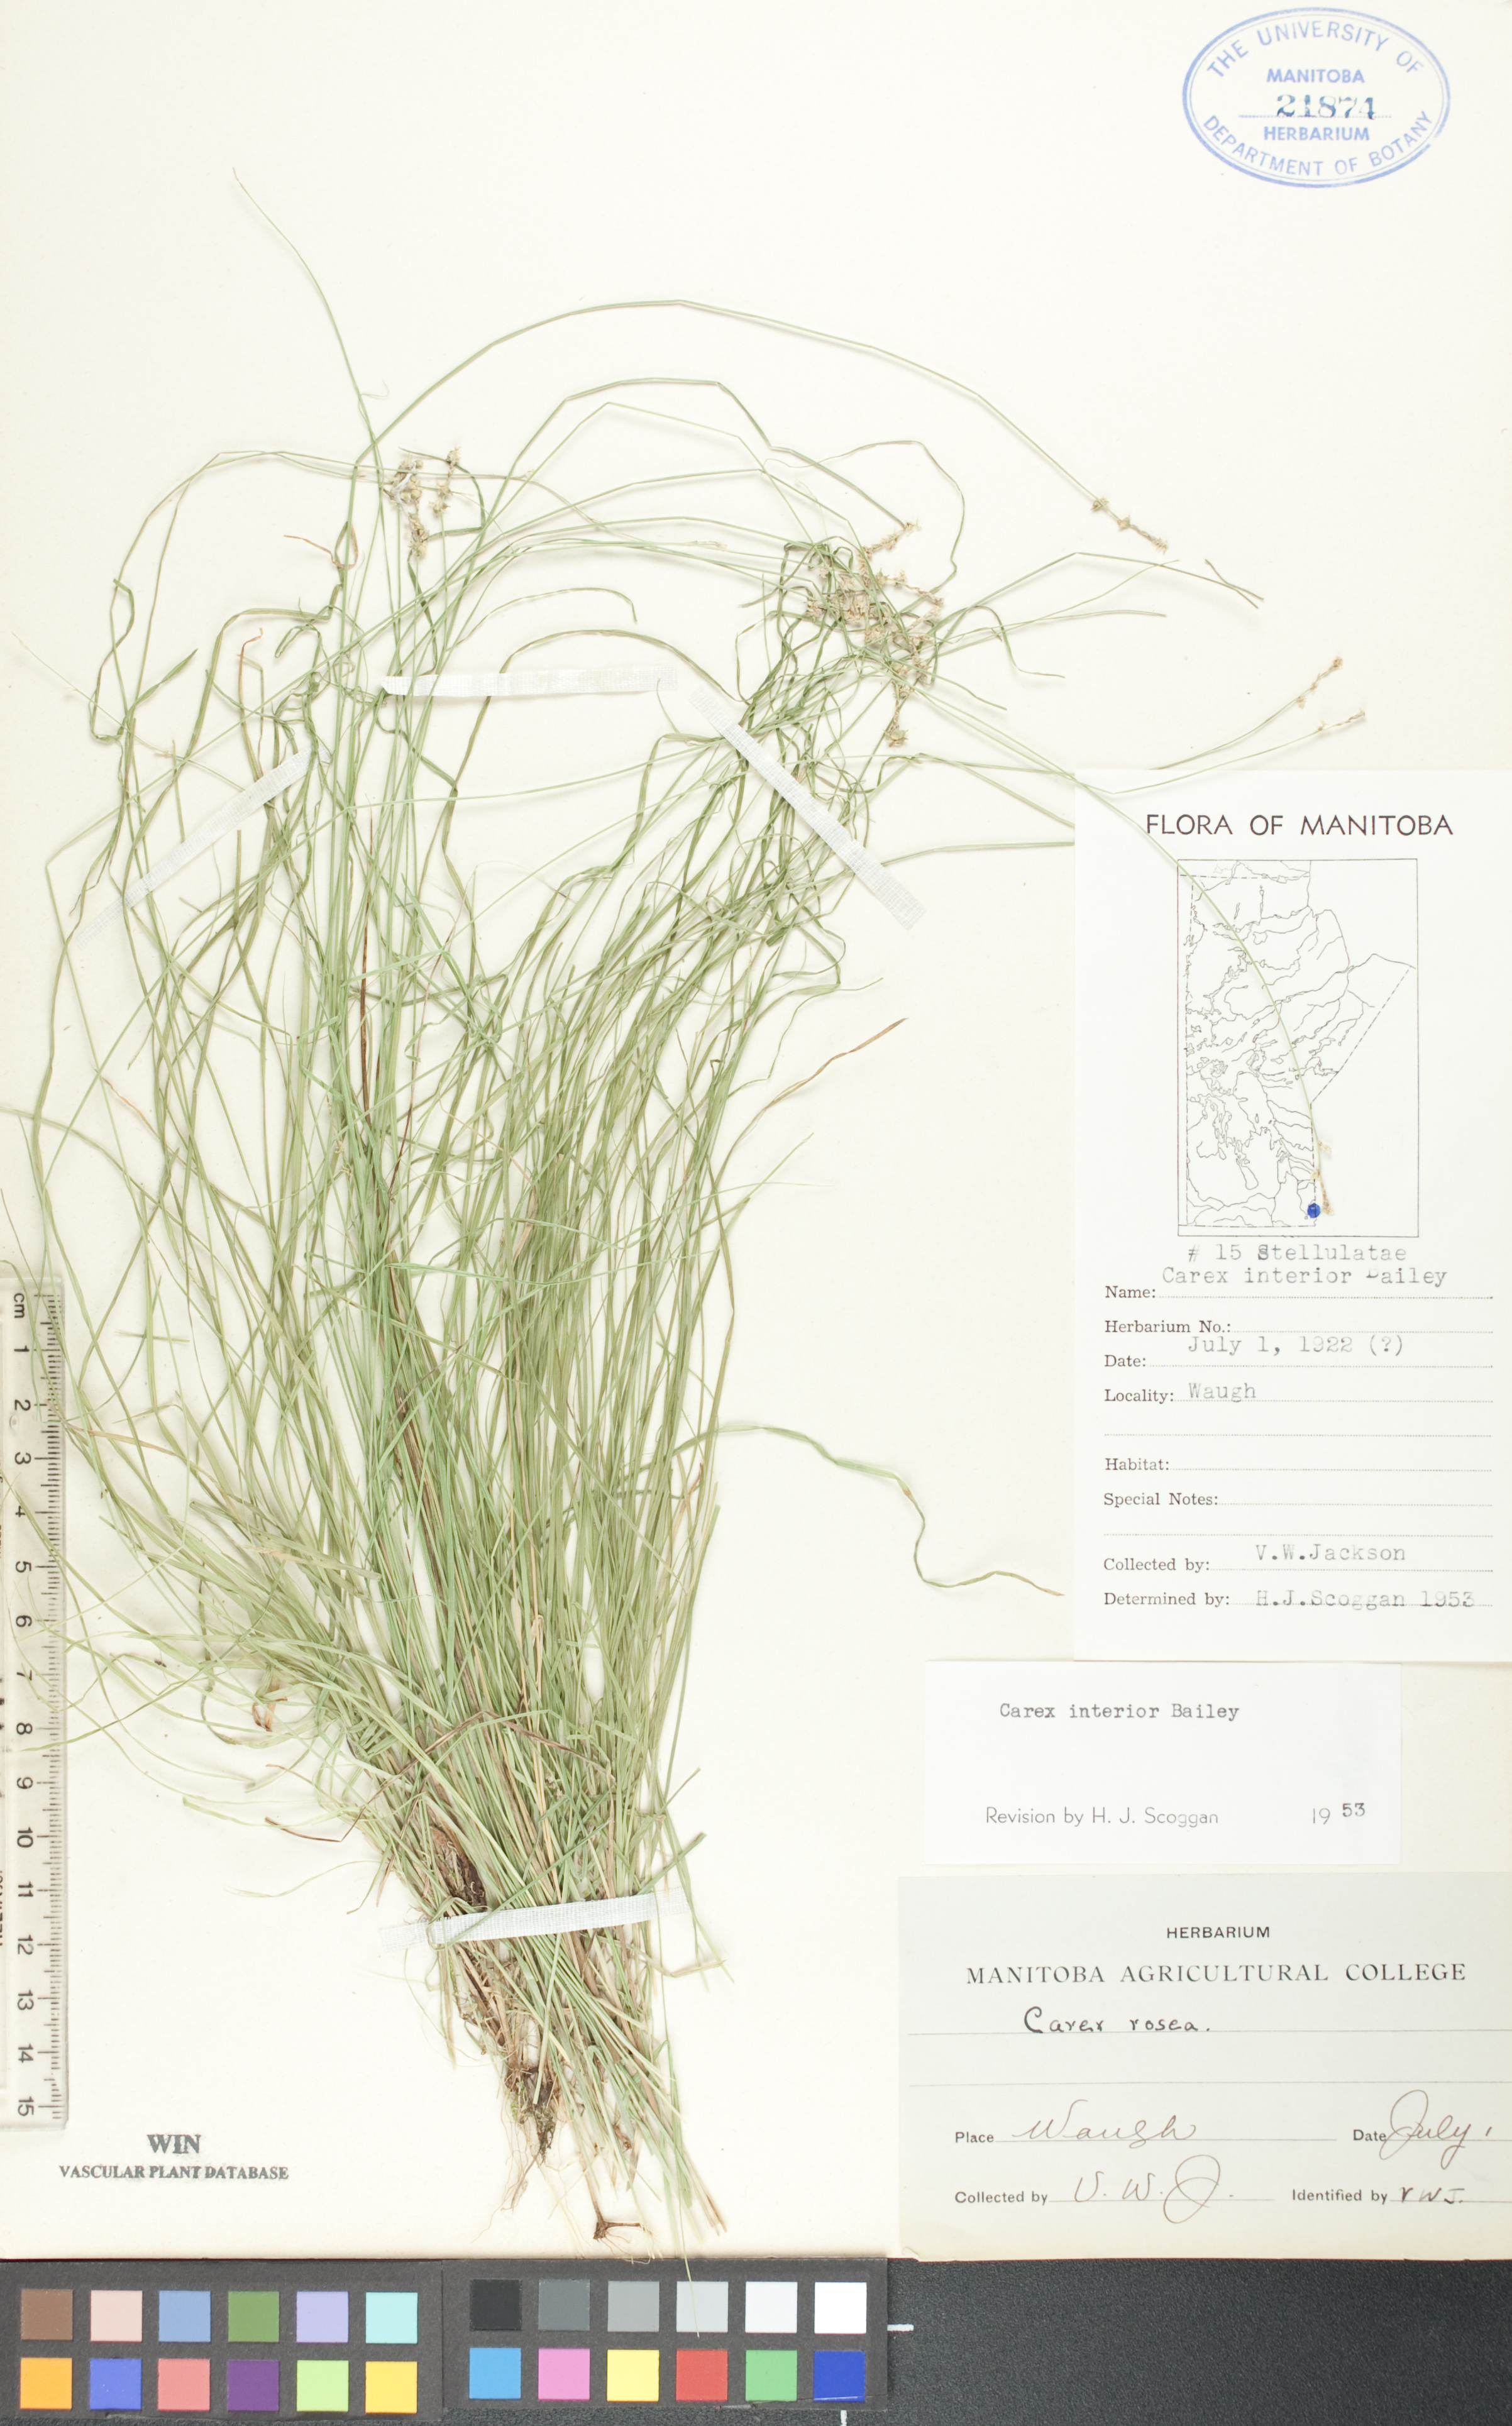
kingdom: Plantae
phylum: Tracheophyta
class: Liliopsida
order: Poales
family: Cyperaceae
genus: Carex
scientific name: Carex interior
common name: Inland sedge
